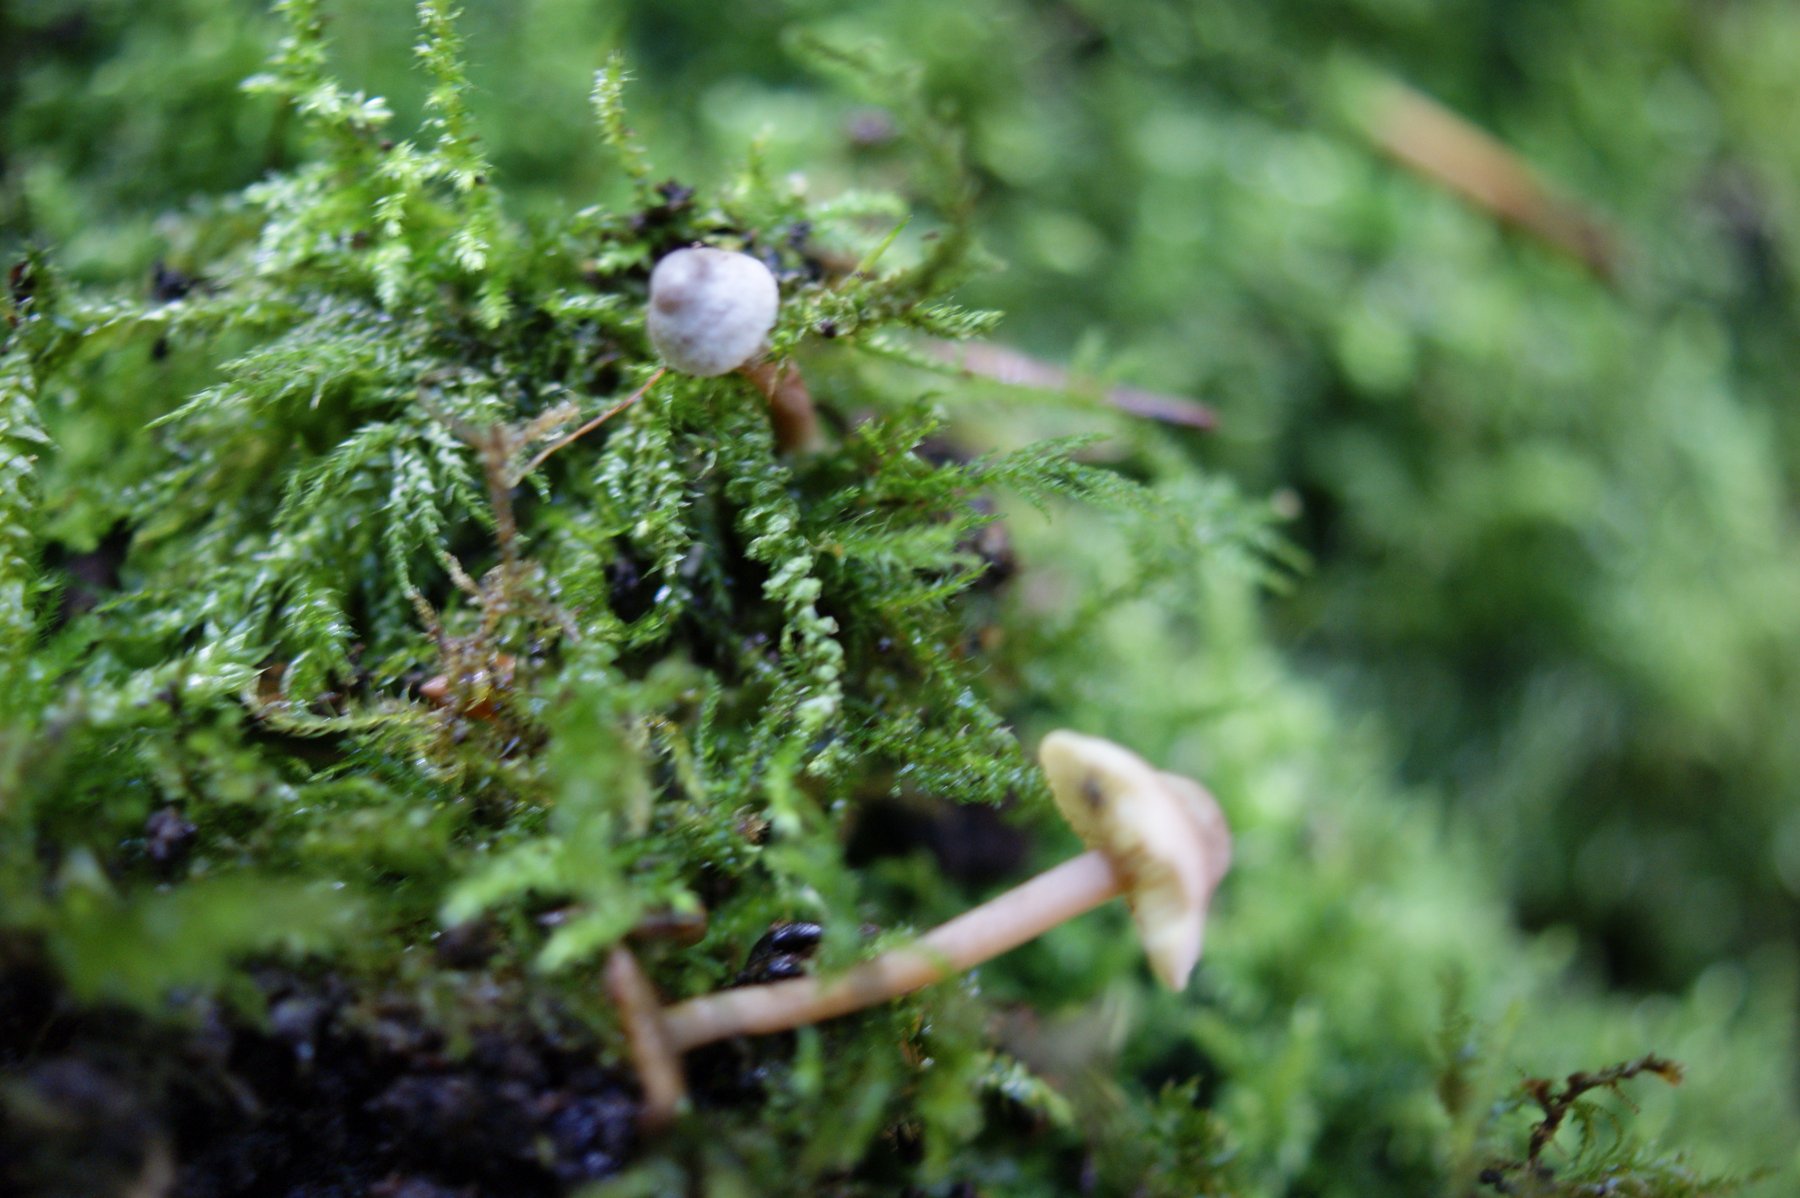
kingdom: Fungi
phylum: Basidiomycota
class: Agaricomycetes
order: Agaricales
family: Inocybaceae
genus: Inocybe
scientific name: Inocybe petiginosa
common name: liden trævlhat
